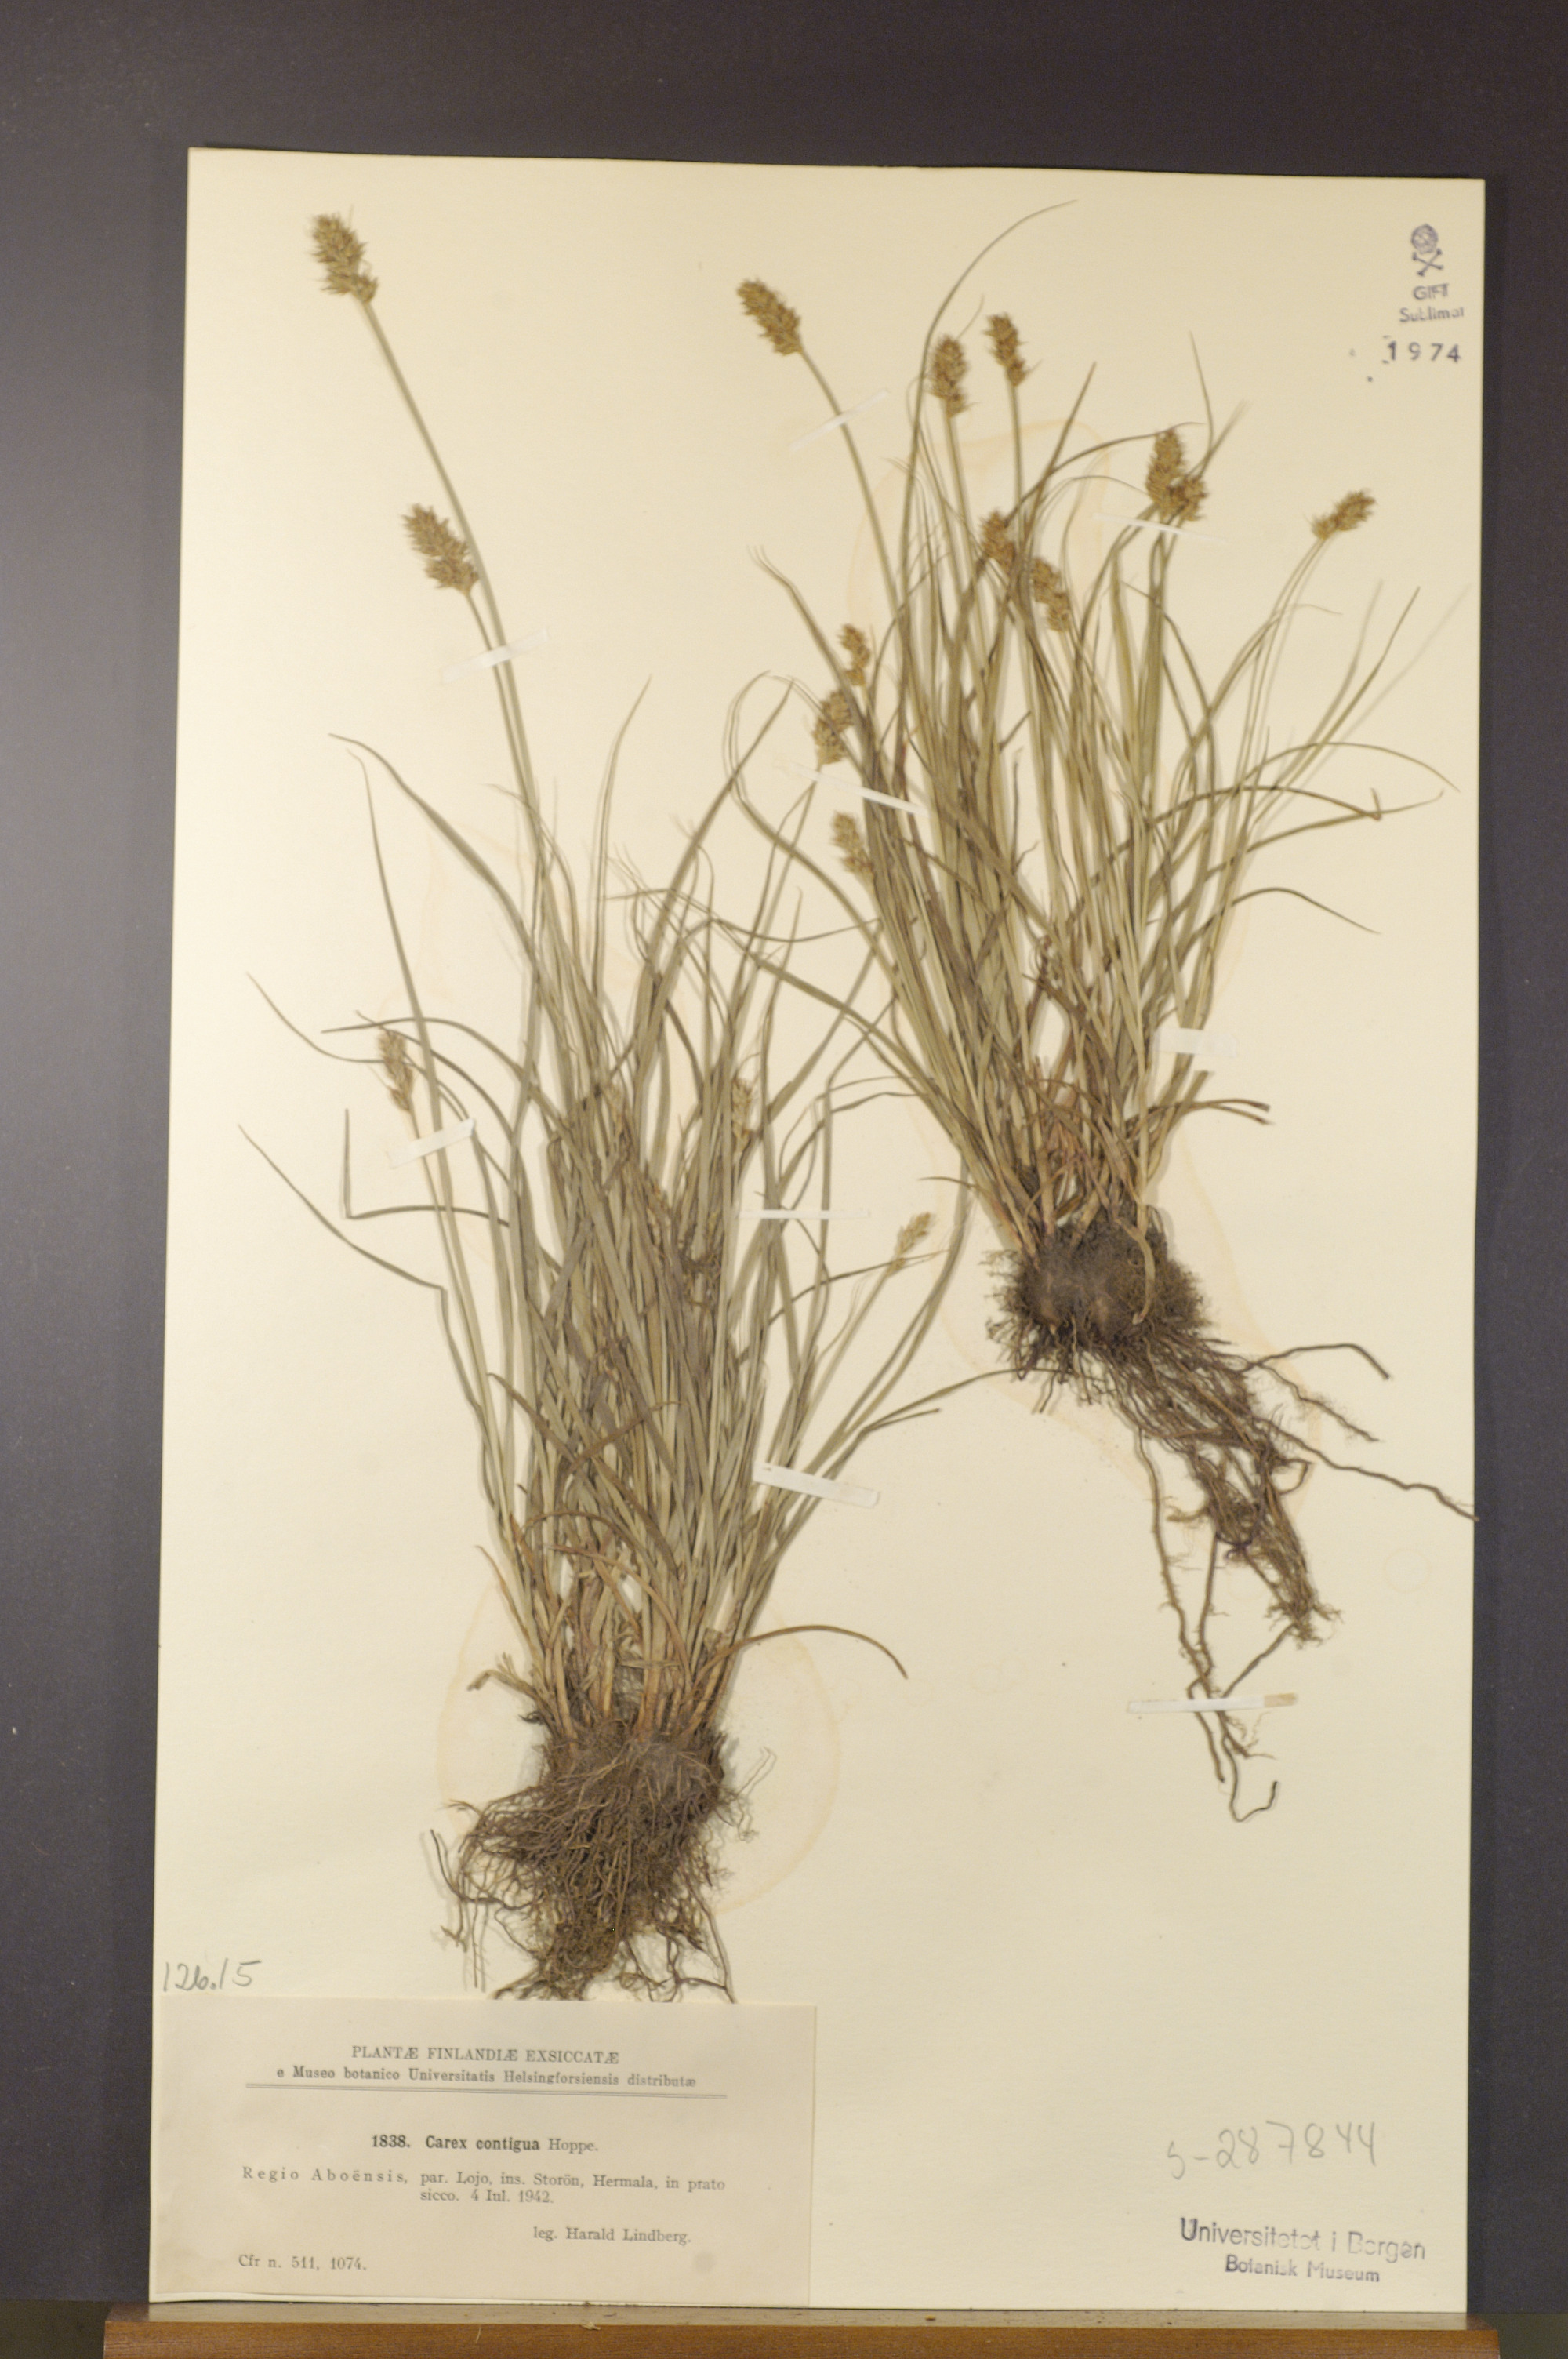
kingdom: Plantae
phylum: Tracheophyta
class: Liliopsida
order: Poales
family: Cyperaceae
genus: Carex
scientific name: Carex spicata
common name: Spiked sedge
